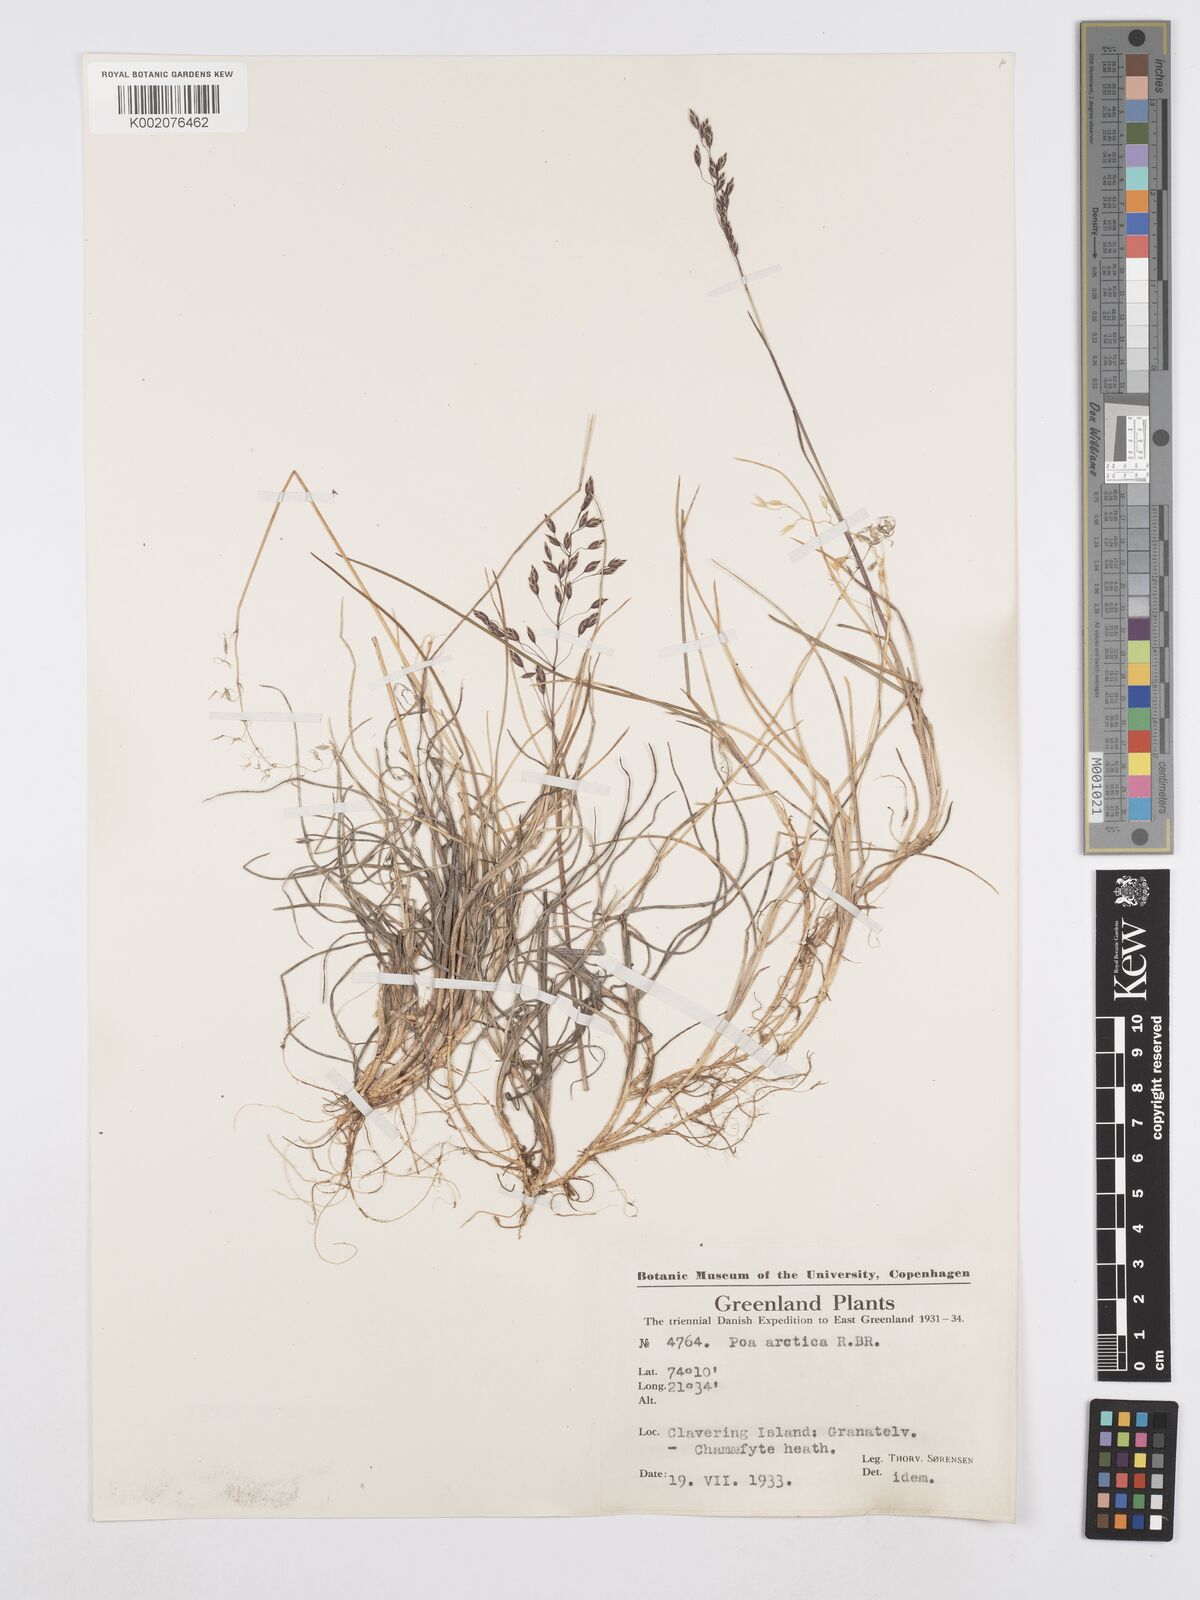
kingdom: Plantae
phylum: Tracheophyta
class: Liliopsida
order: Poales
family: Poaceae
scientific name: Poaceae
